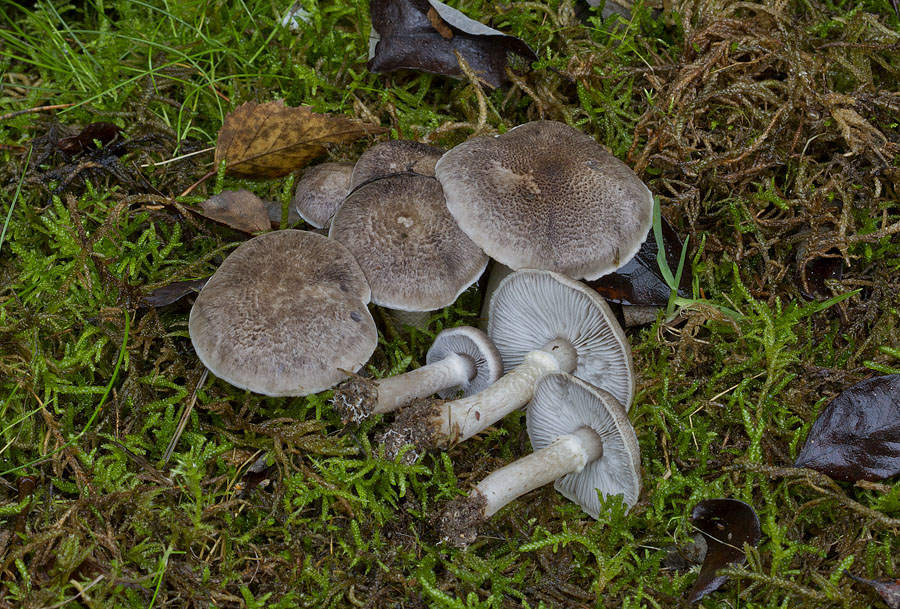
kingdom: Fungi
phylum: Basidiomycota
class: Agaricomycetes
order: Agaricales
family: Tricholomataceae
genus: Tricholoma
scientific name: Tricholoma cingulatum
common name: ring-ridderhat
